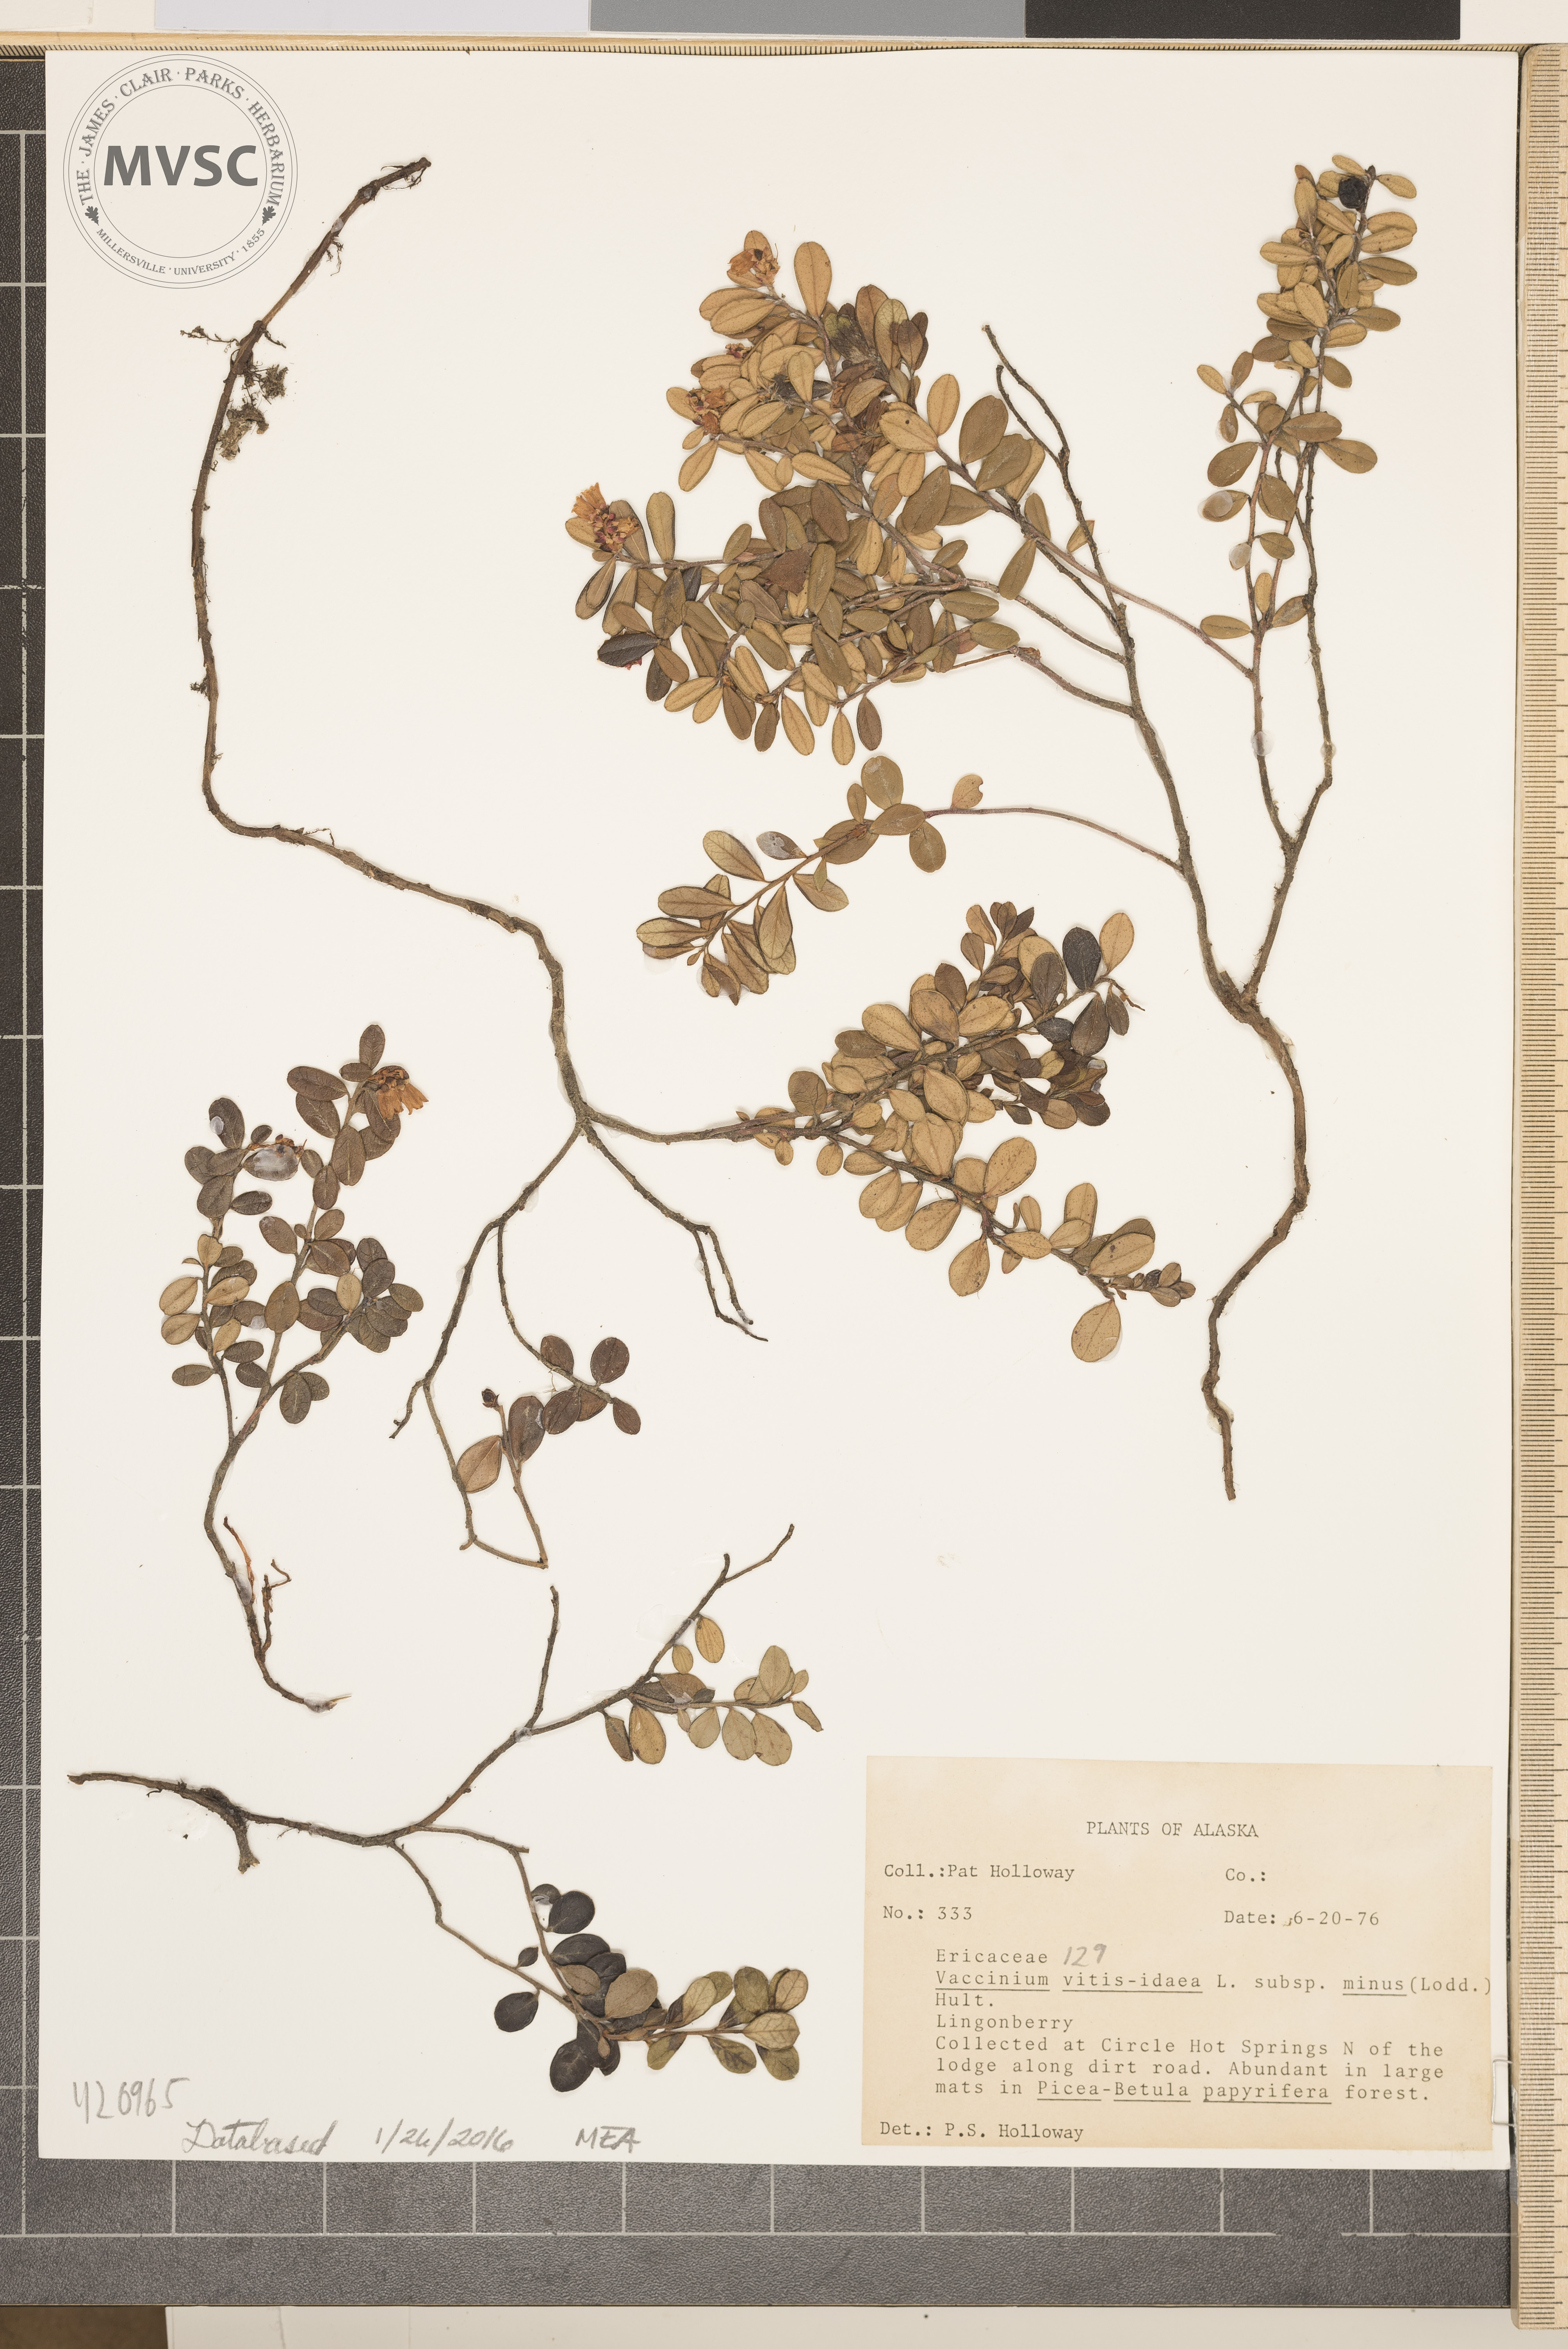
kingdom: Plantae
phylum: Tracheophyta
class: Magnoliopsida
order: Ericales
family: Ericaceae
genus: Vaccinium
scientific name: Vaccinium vitis-idaea
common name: Lingonberry
